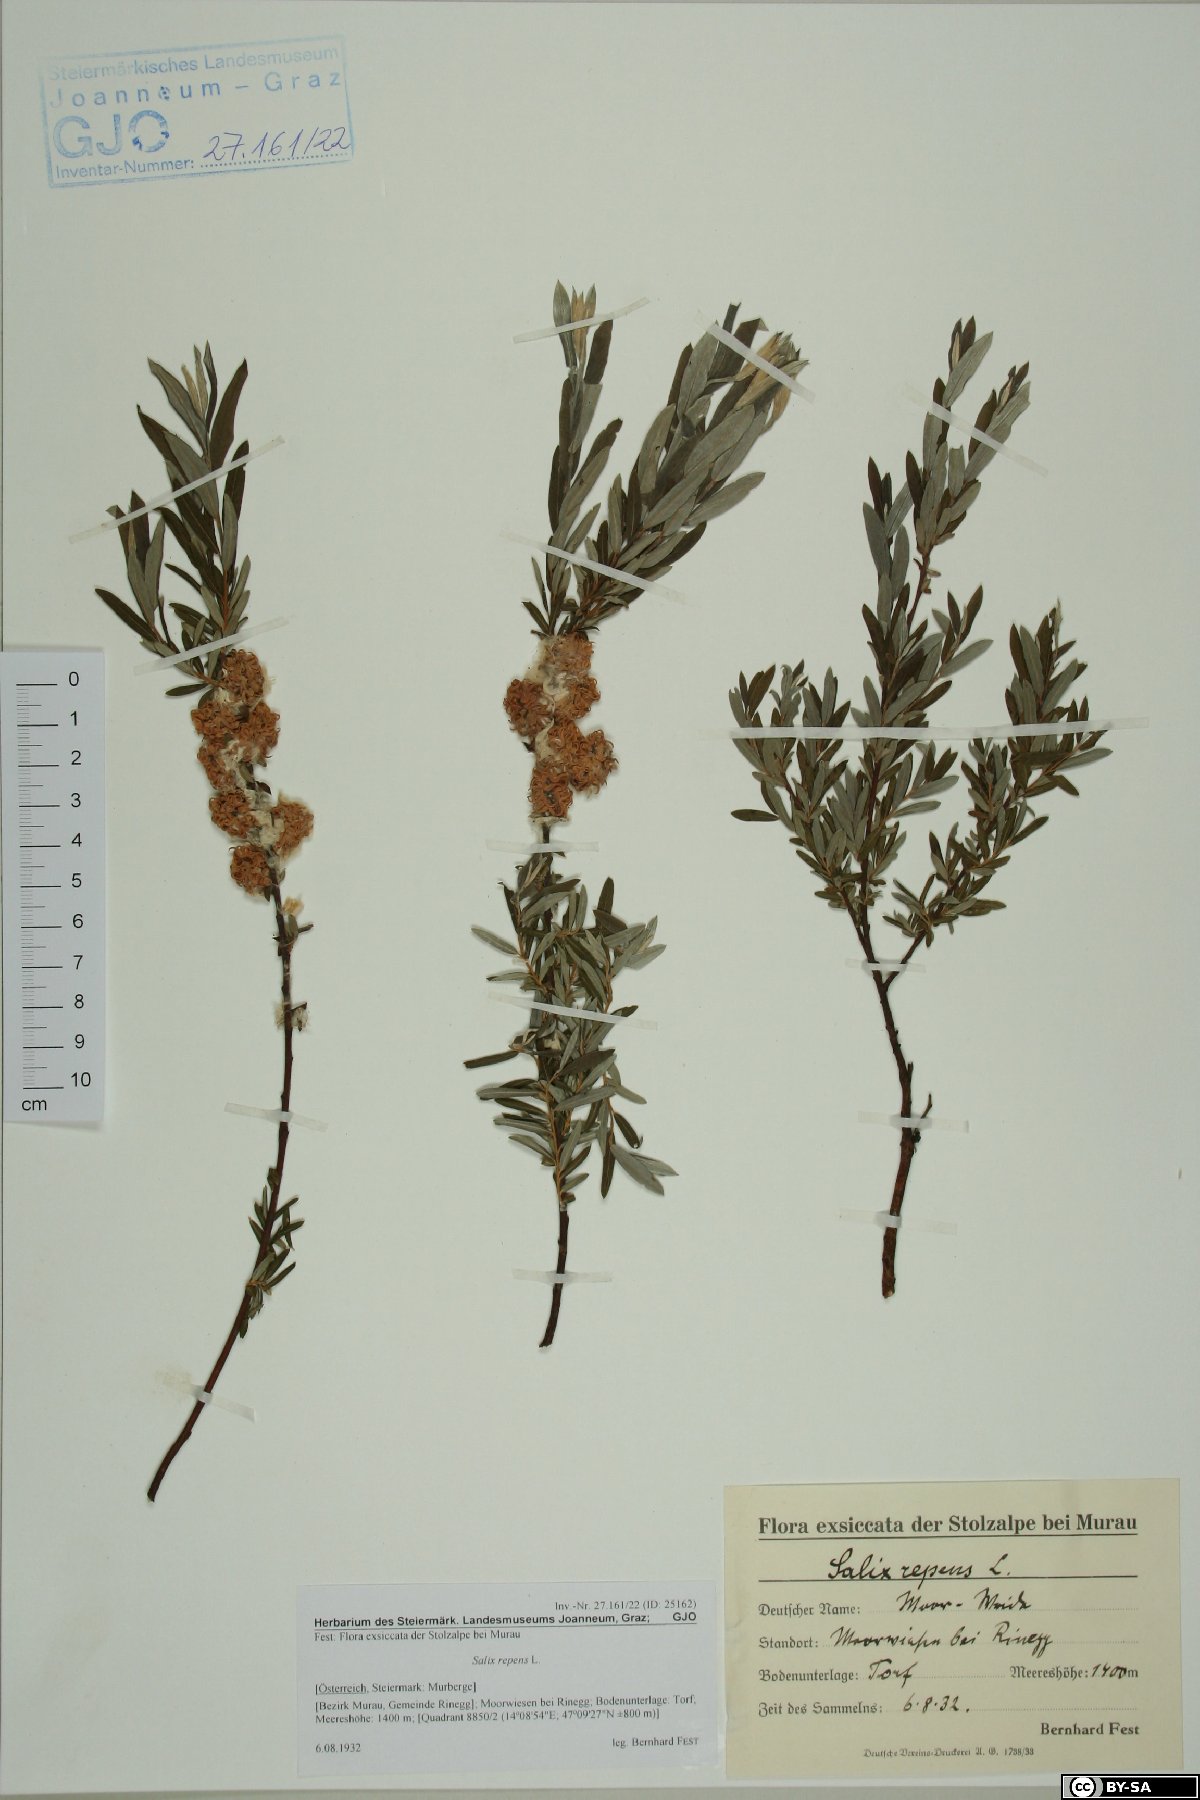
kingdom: Plantae
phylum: Tracheophyta
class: Magnoliopsida
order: Malpighiales
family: Salicaceae
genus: Salix
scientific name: Salix repens
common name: Creeping willow
